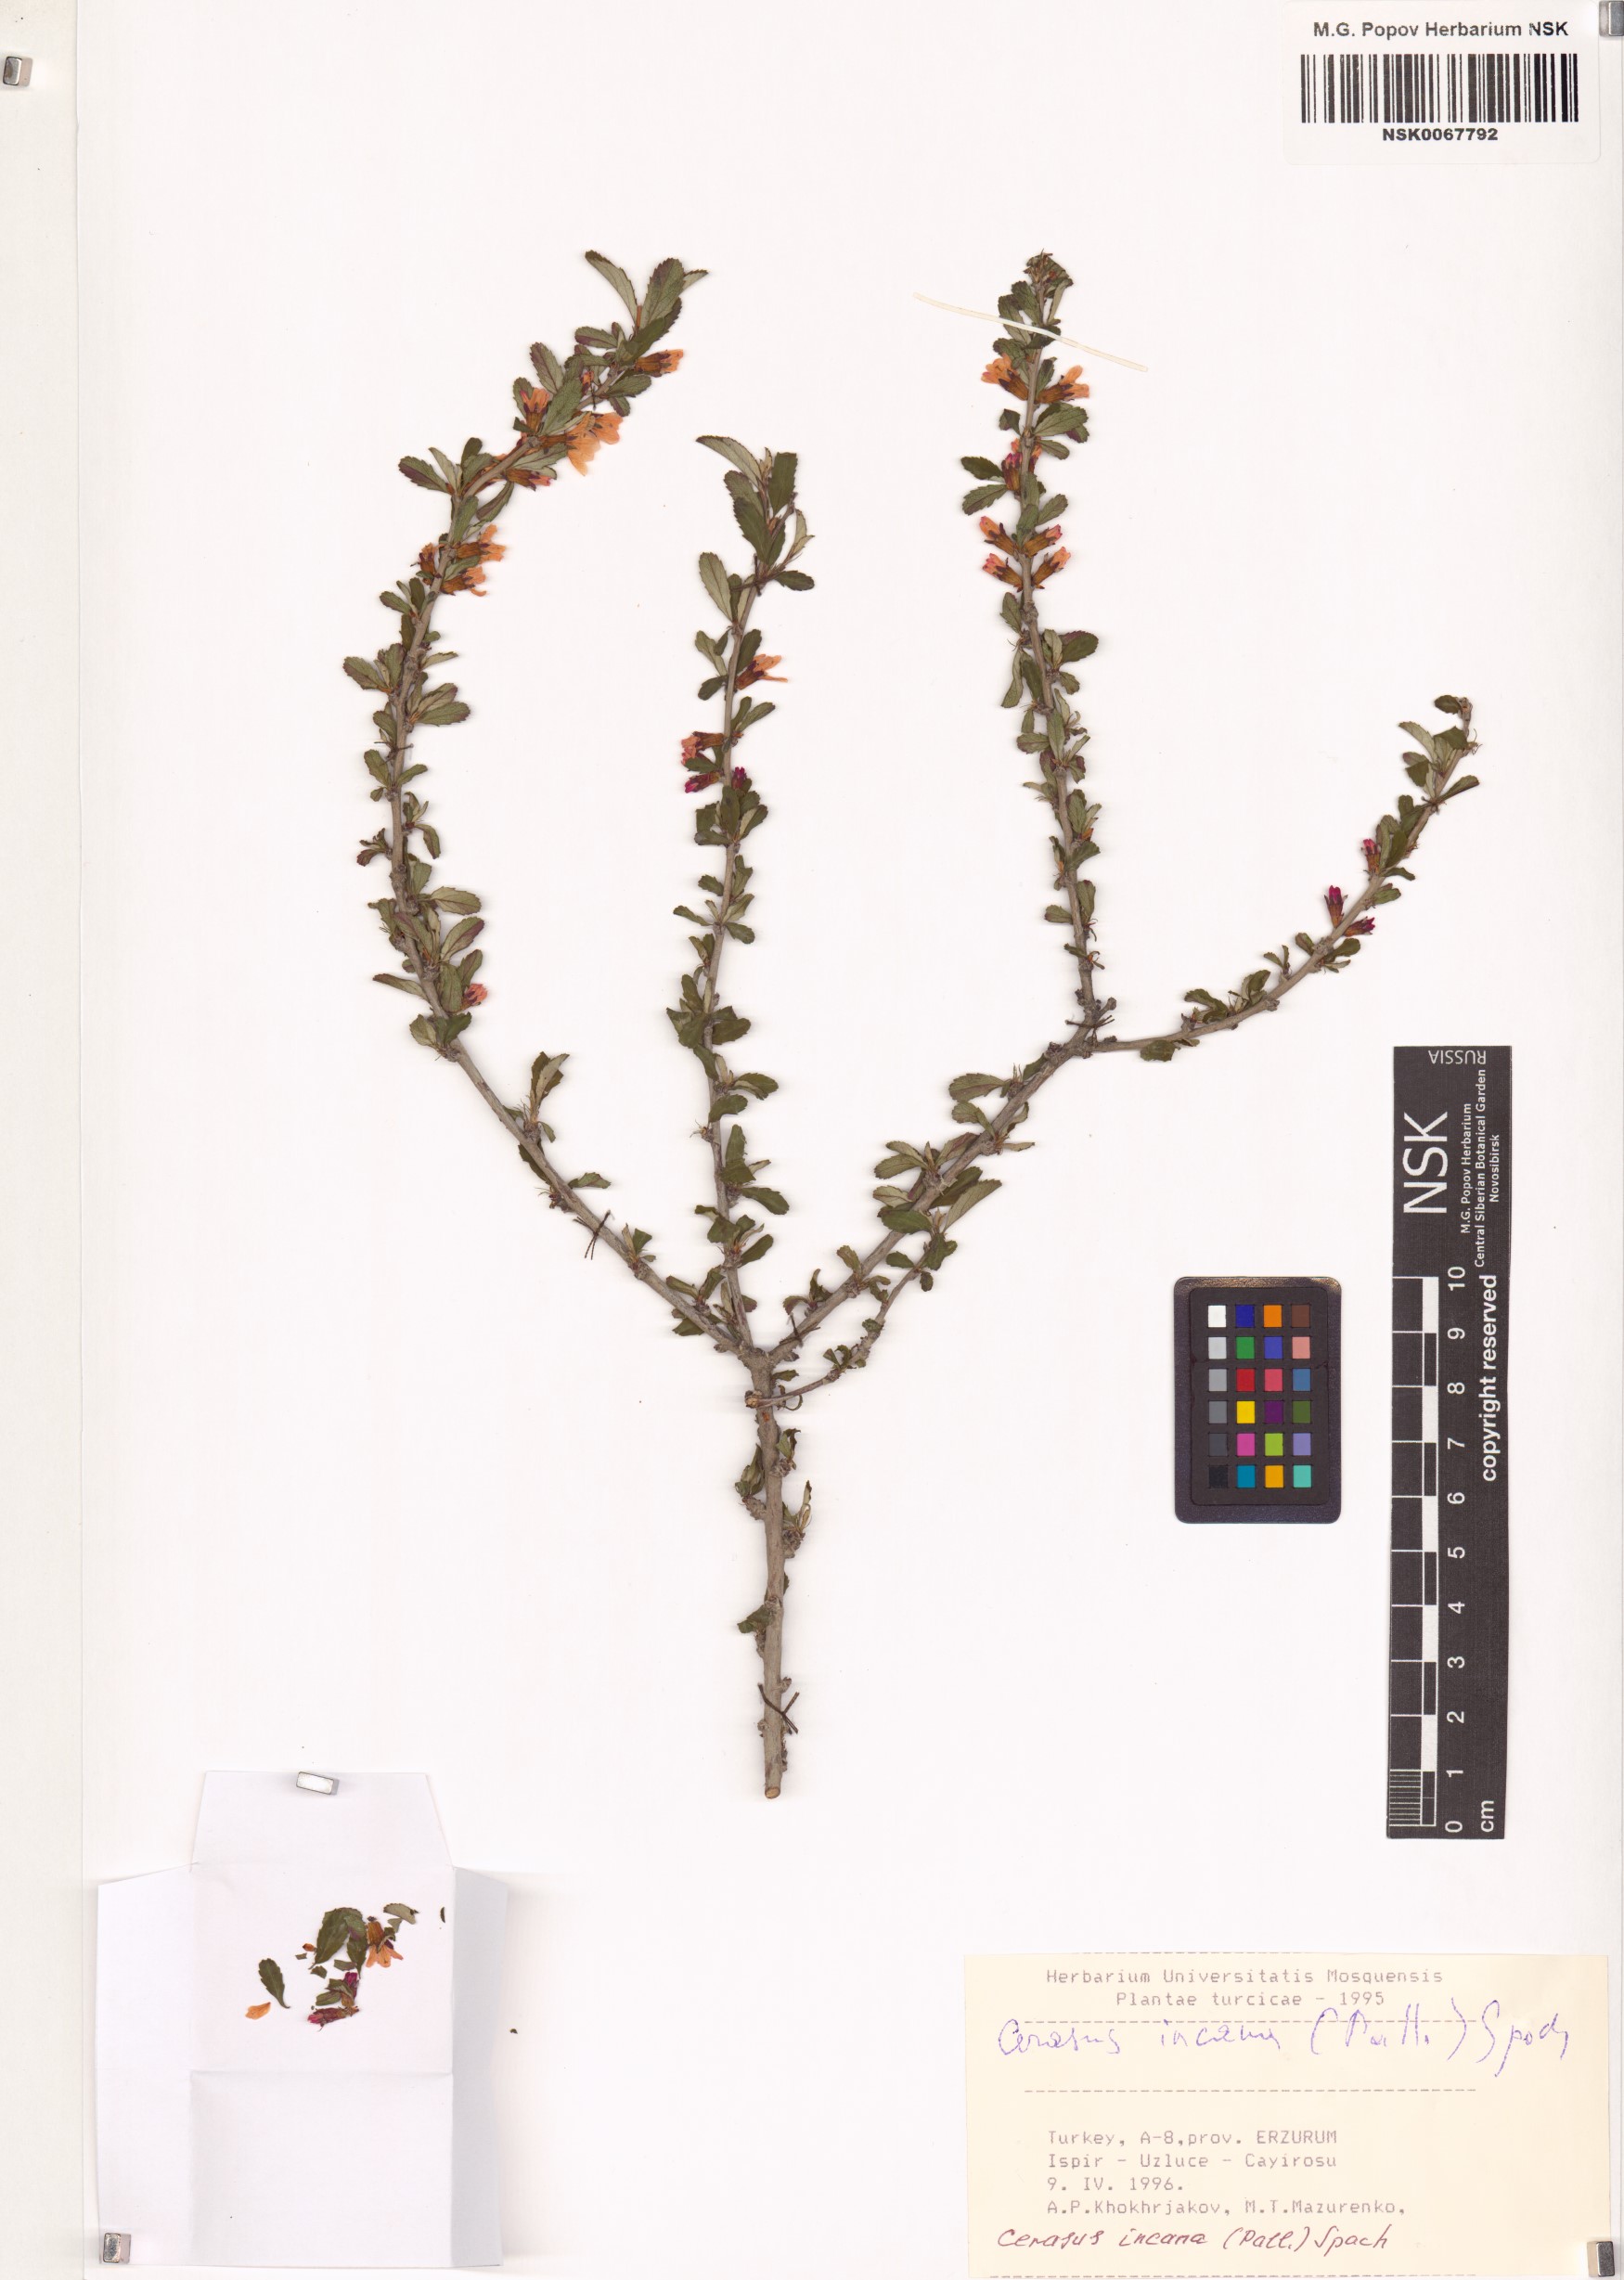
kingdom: Plantae
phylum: Tracheophyta
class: Magnoliopsida
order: Rosales
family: Rosaceae
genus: Prunus
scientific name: Prunus incana
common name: Willow cherry
